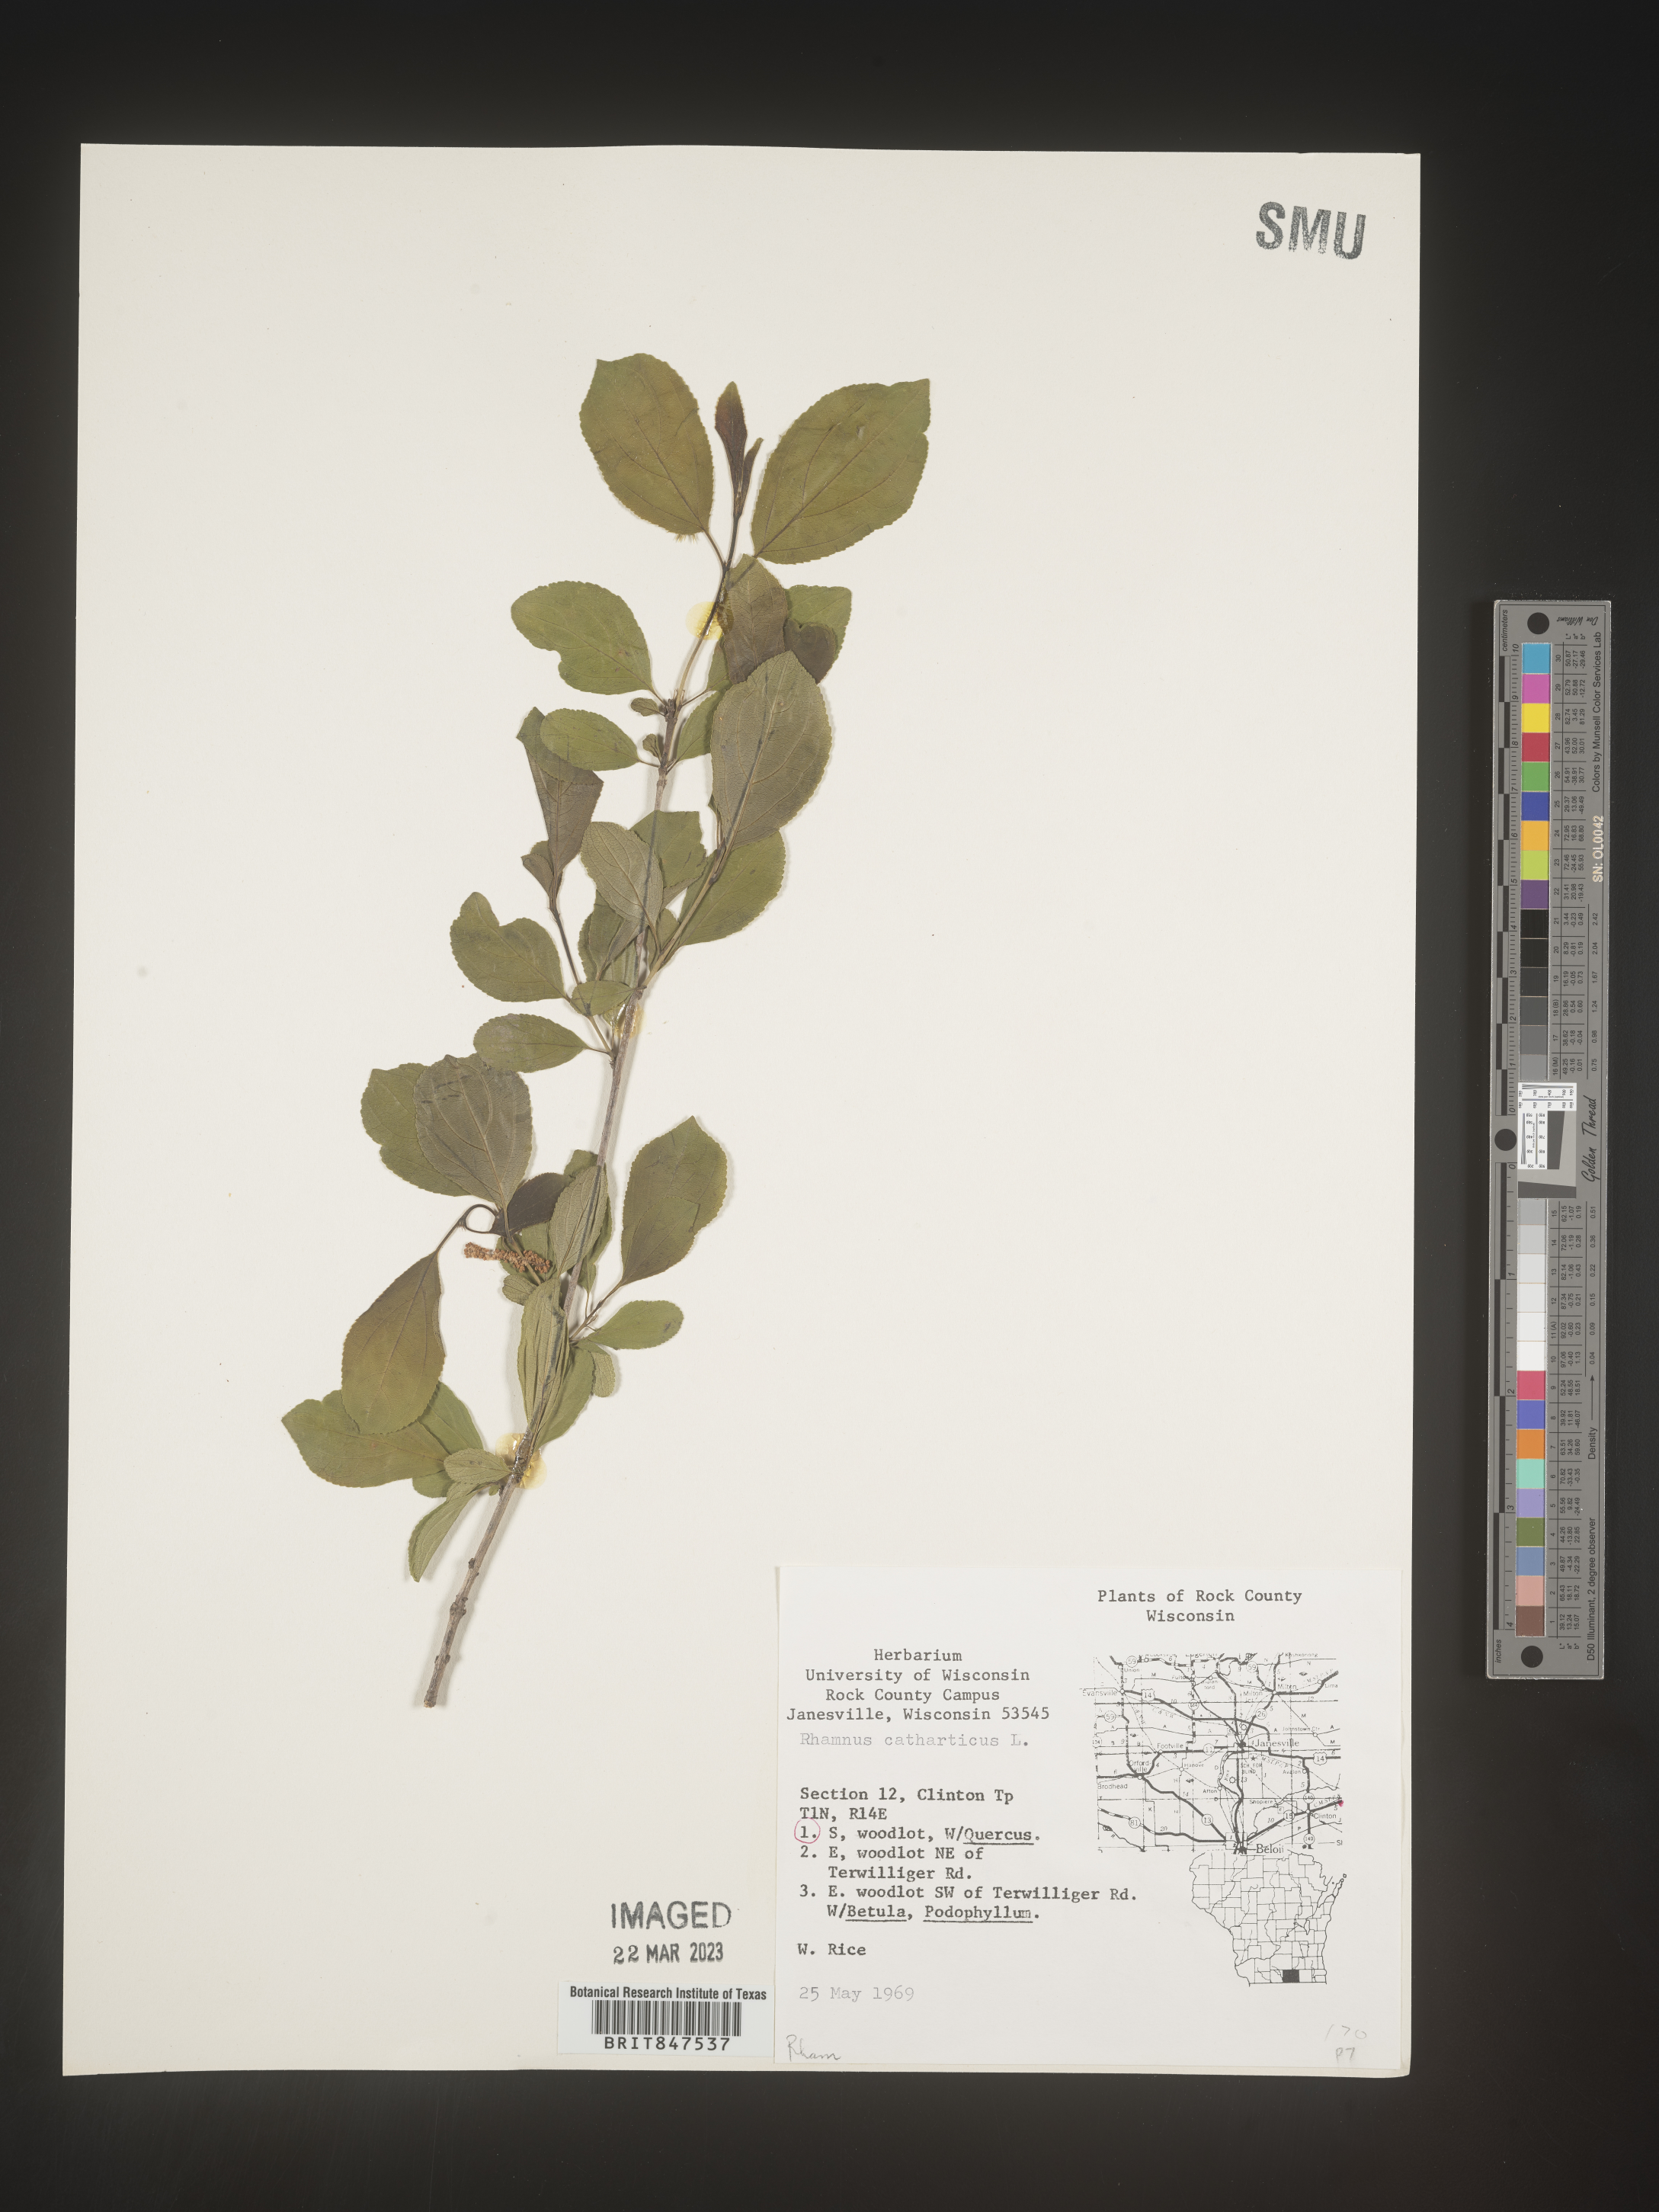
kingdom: Plantae
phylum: Tracheophyta
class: Magnoliopsida
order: Rosales
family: Rhamnaceae
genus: Rhamnus
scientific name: Rhamnus cathartica
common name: Common buckthorn
